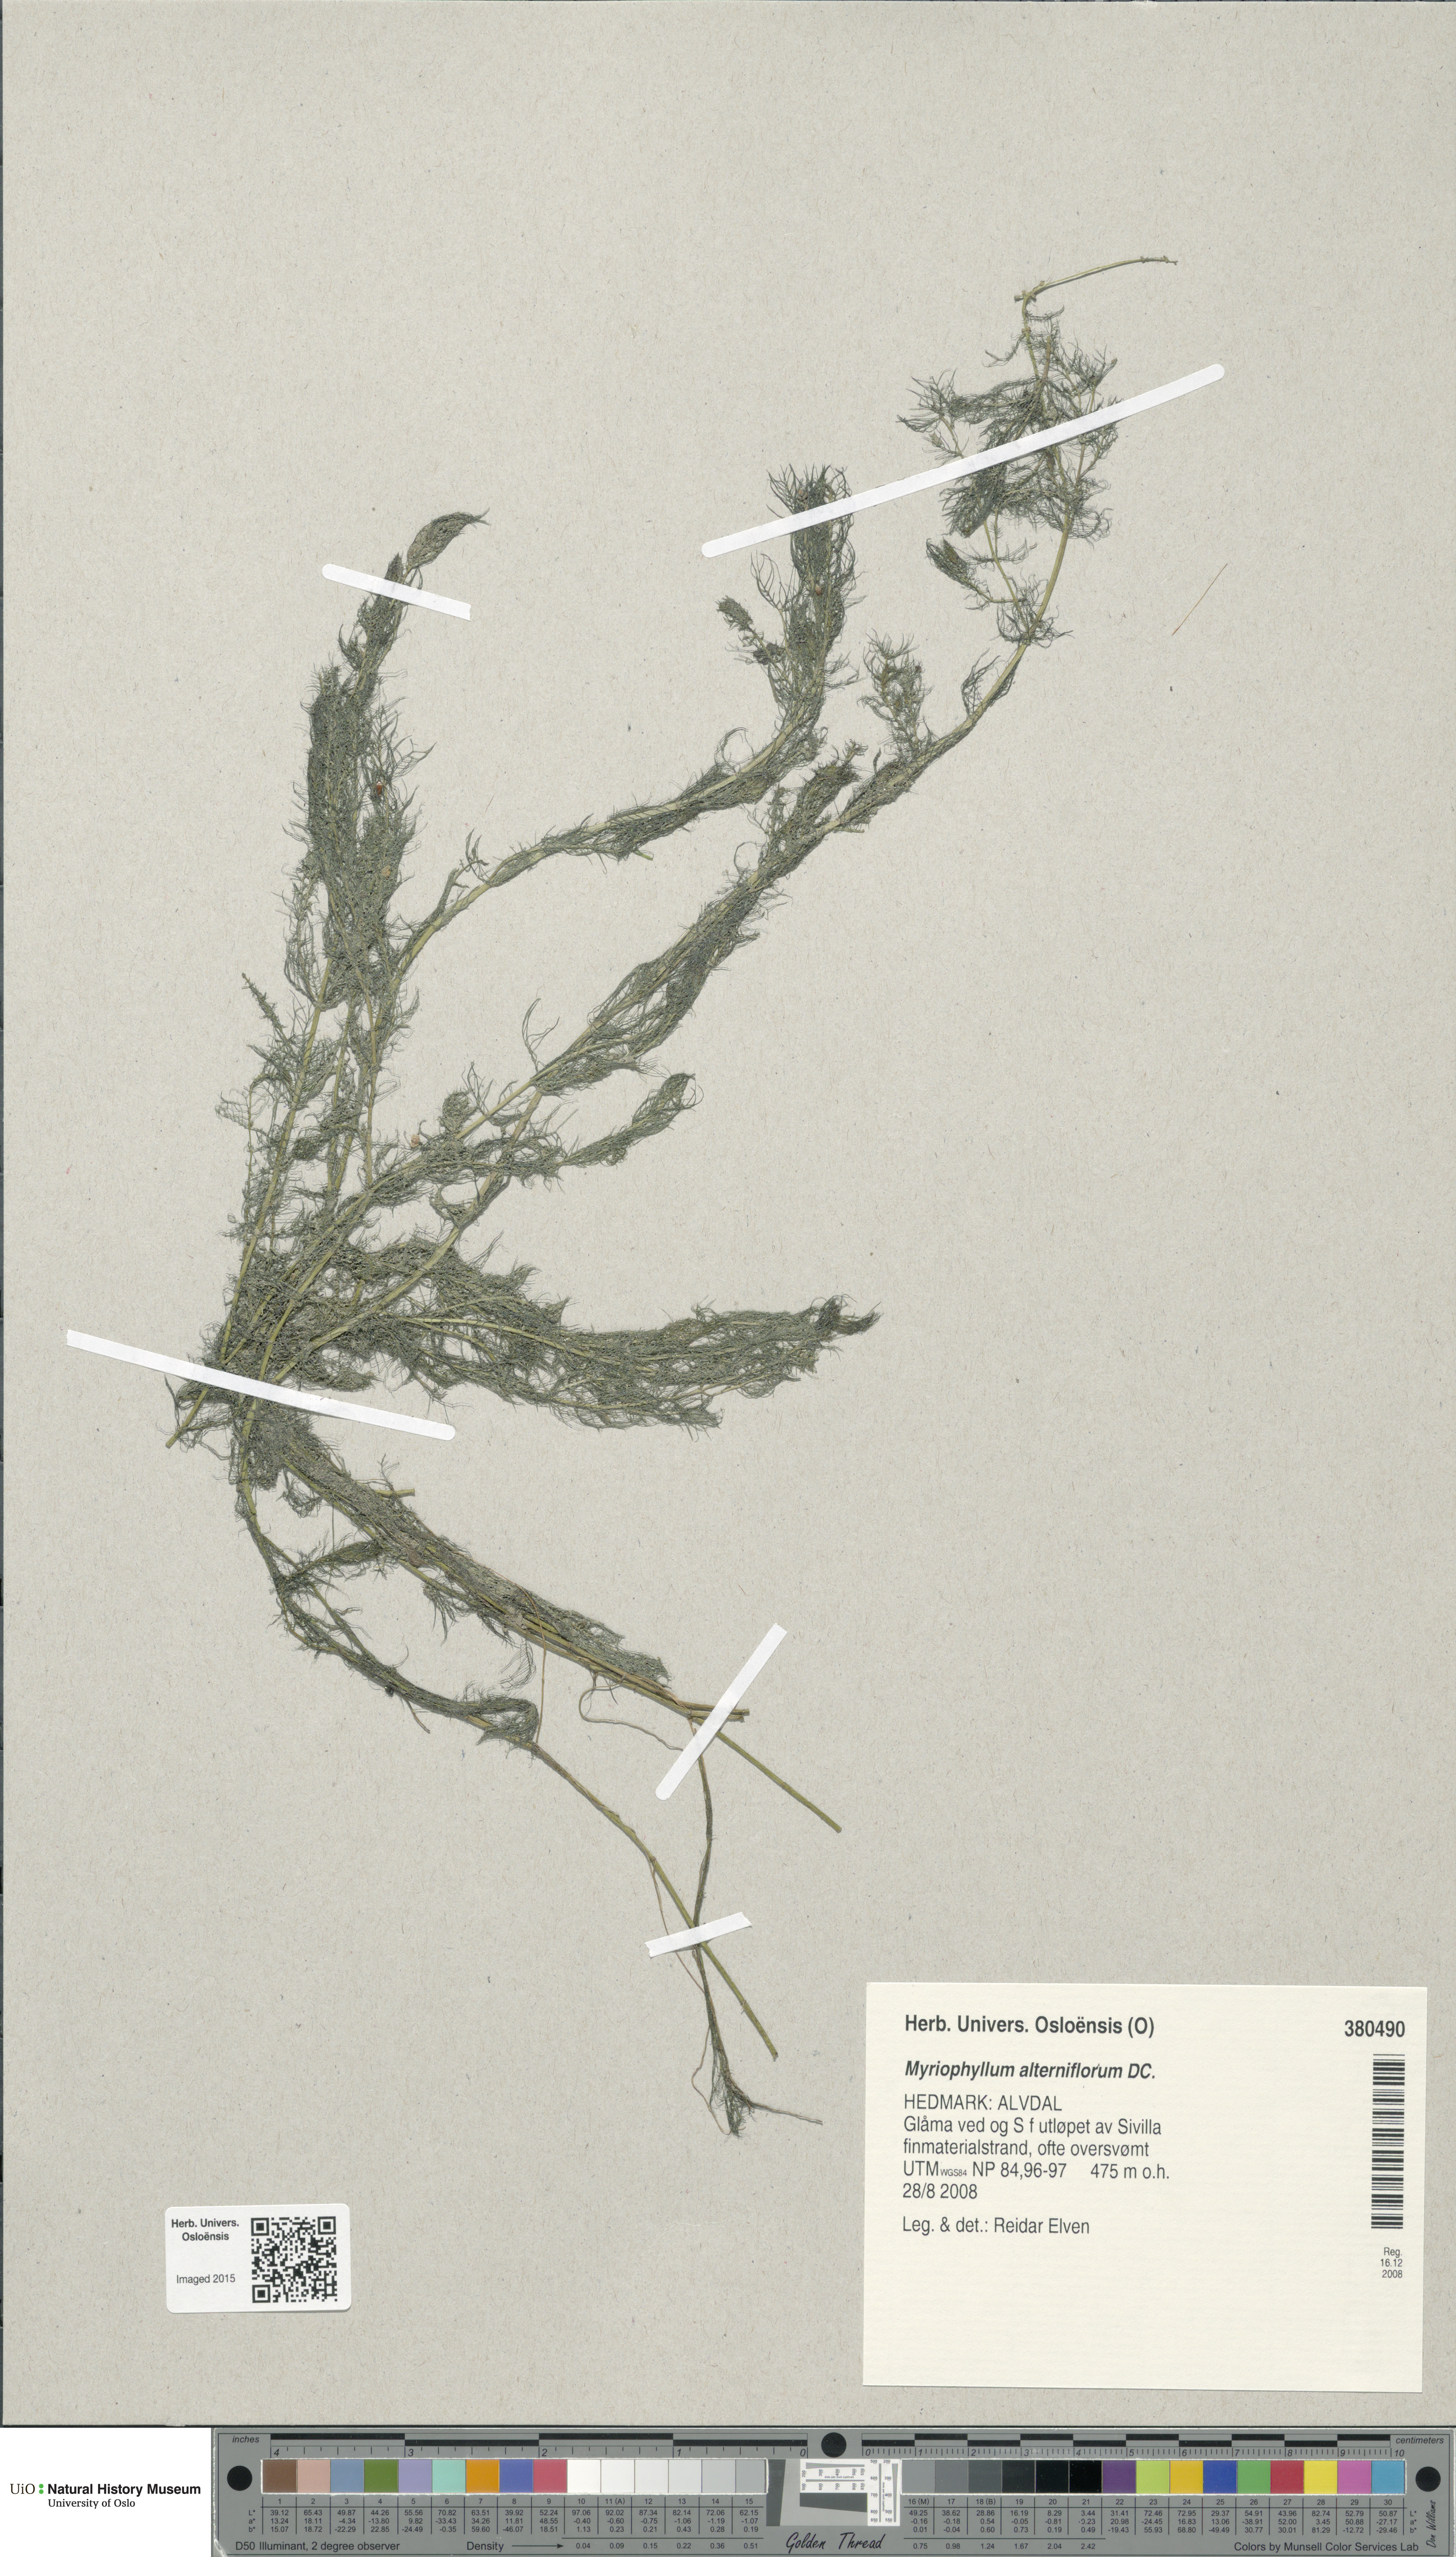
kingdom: Plantae
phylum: Tracheophyta
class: Magnoliopsida
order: Saxifragales
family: Haloragaceae
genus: Myriophyllum
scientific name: Myriophyllum alterniflorum
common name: Alternate water-milfoil
